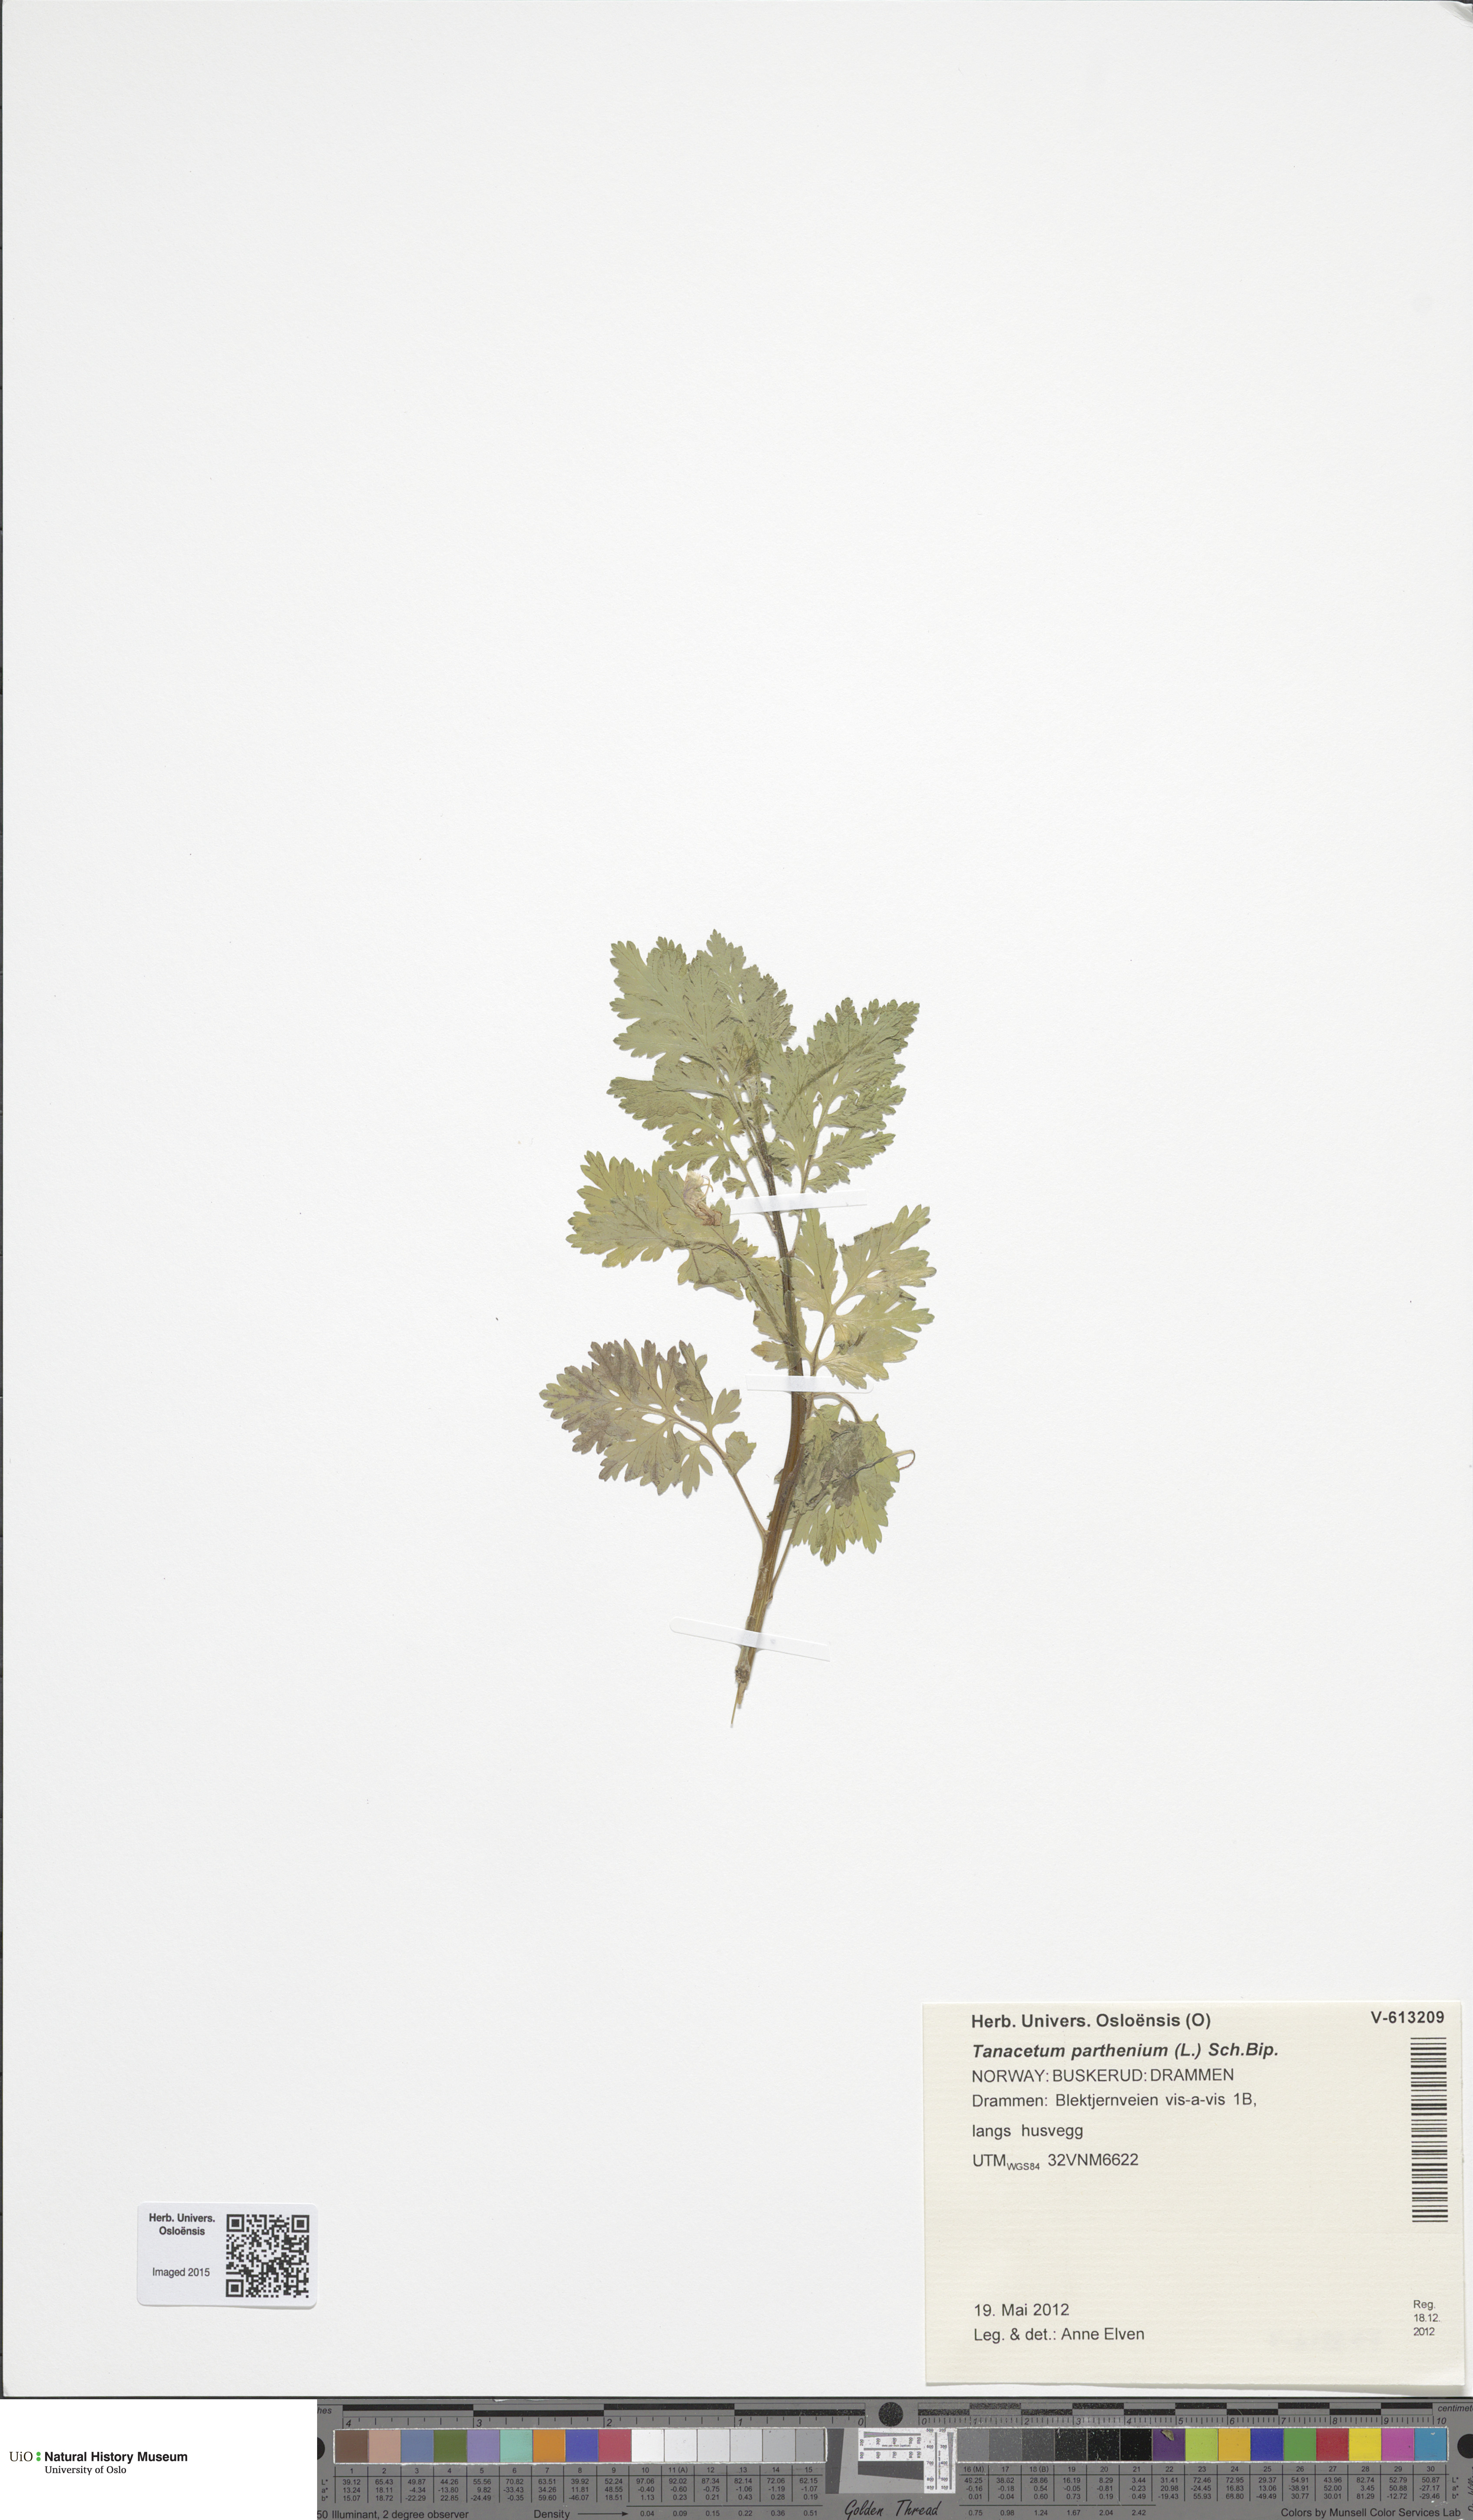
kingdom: Plantae
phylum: Tracheophyta
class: Magnoliopsida
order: Asterales
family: Asteraceae
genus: Tanacetum
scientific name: Tanacetum parthenium
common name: Feverfew
